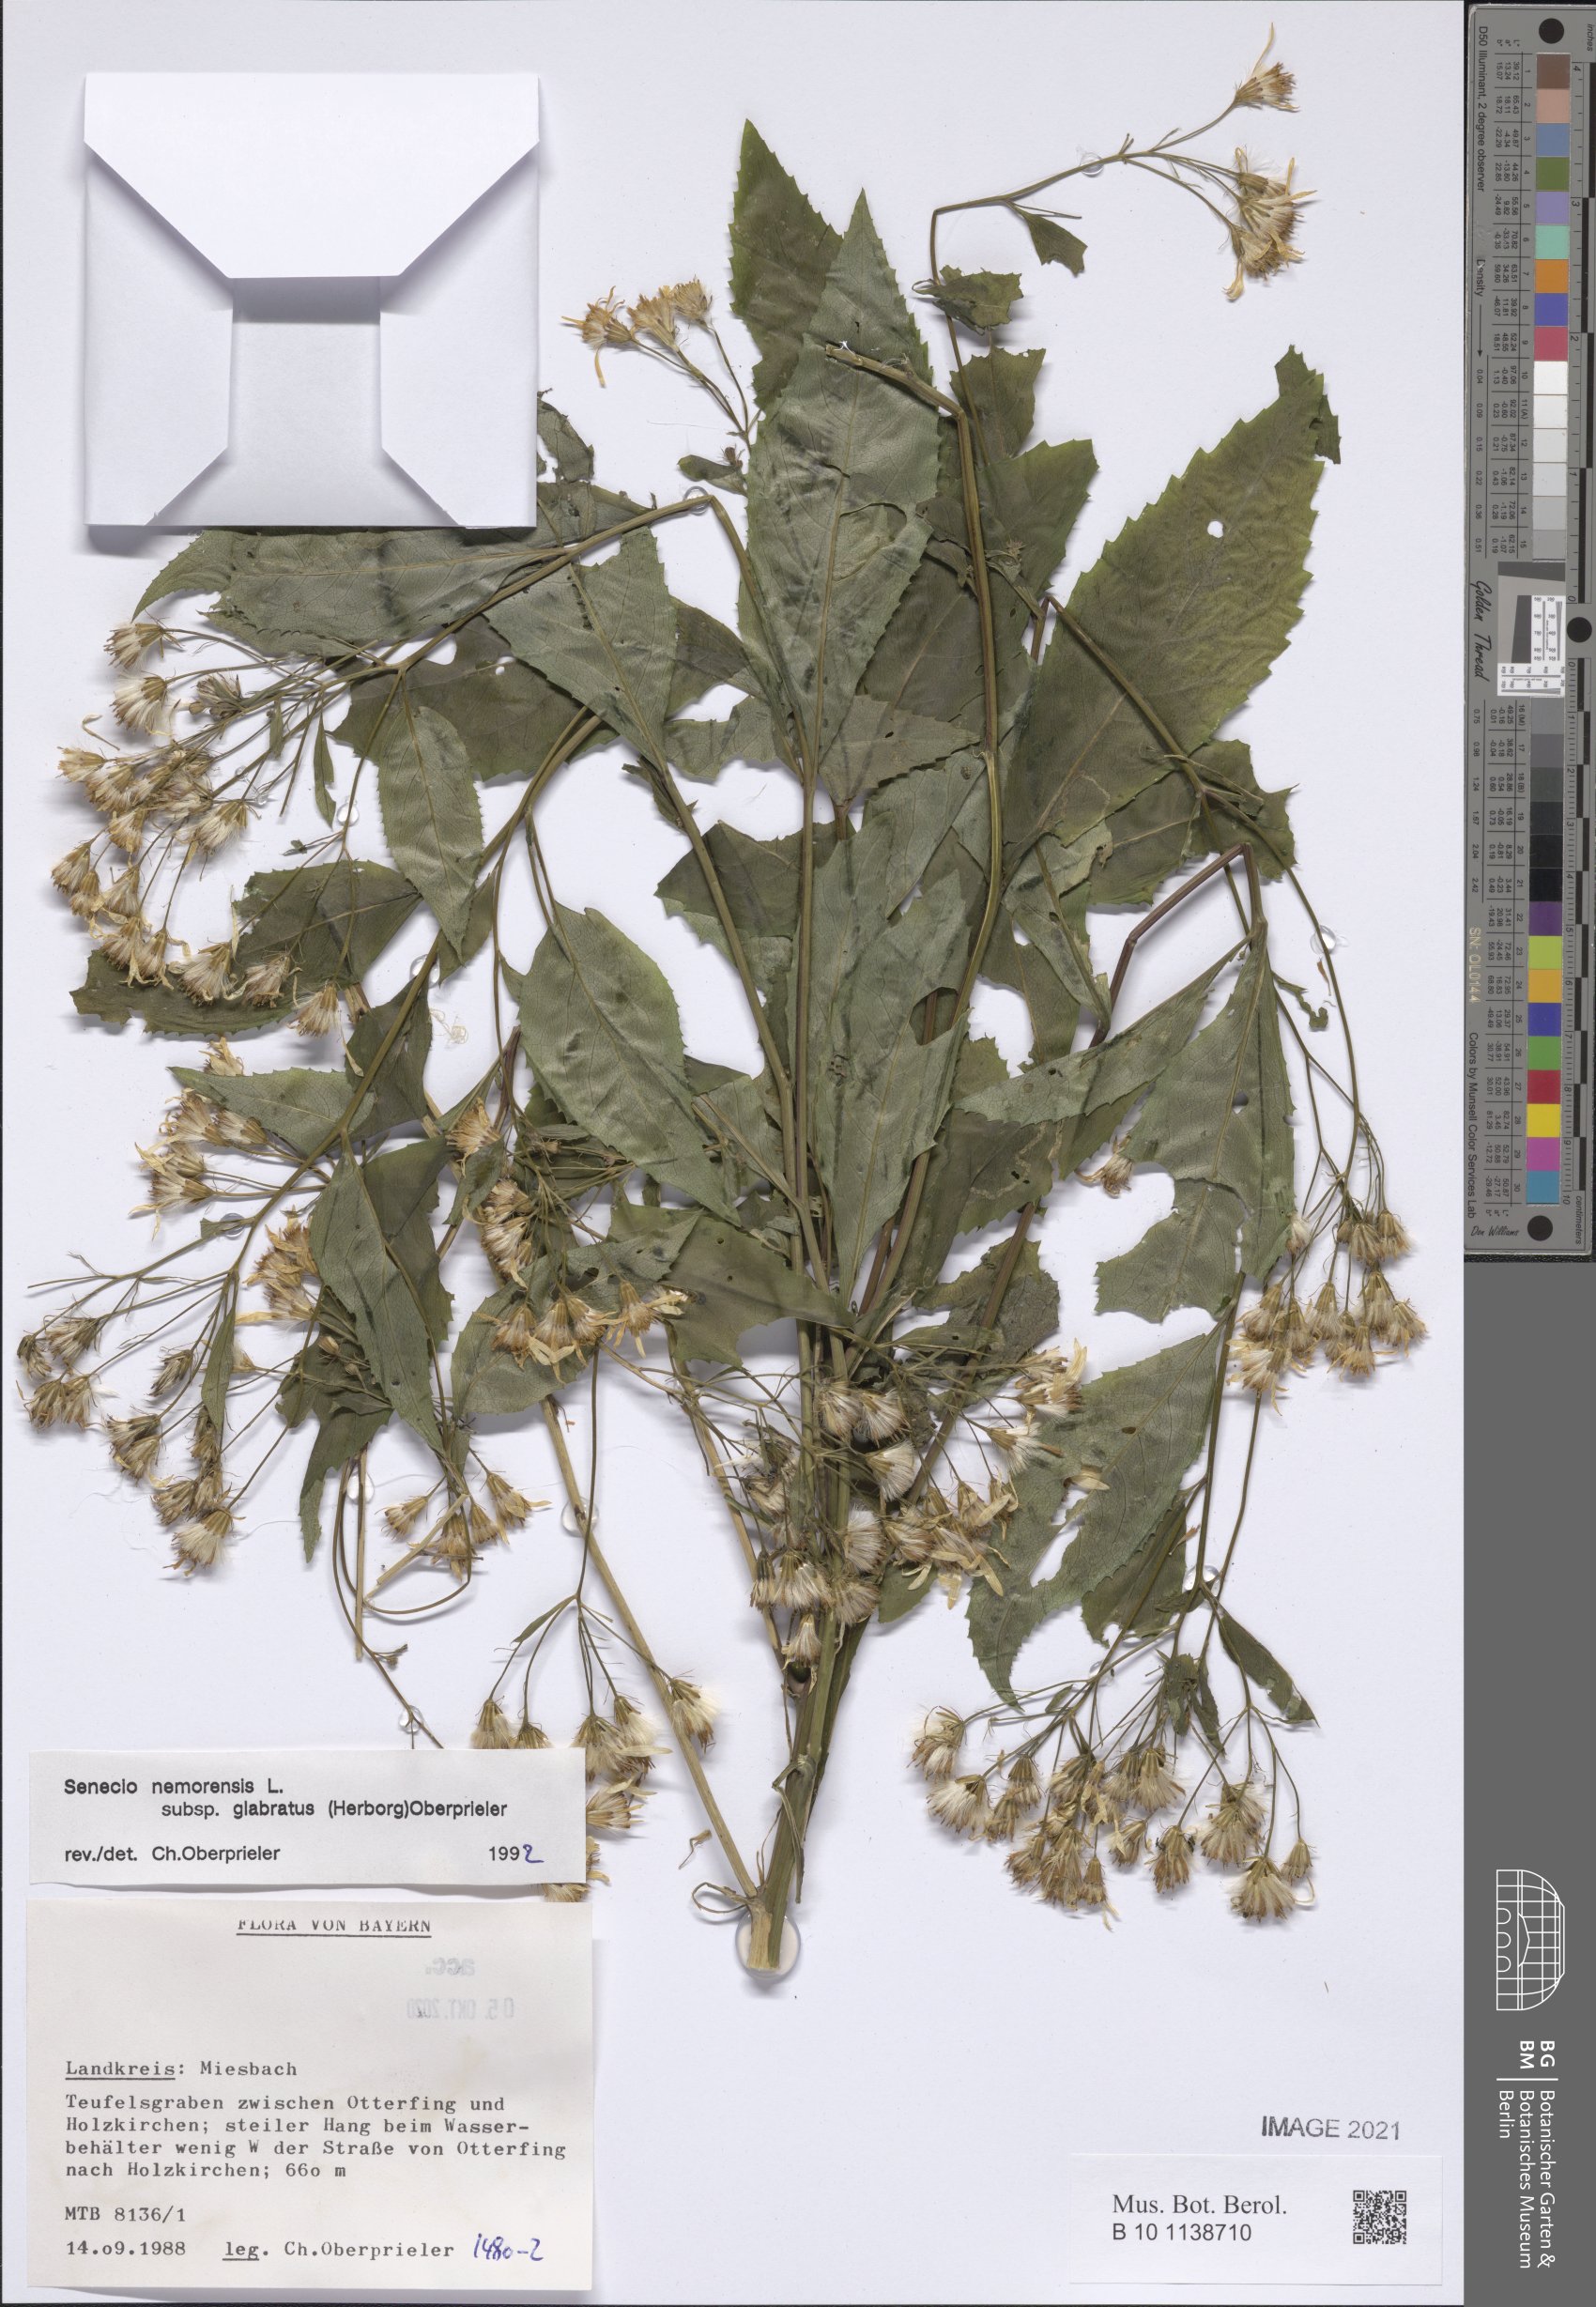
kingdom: Plantae
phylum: Tracheophyta
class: Magnoliopsida
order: Asterales
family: Asteraceae
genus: Senecio
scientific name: Senecio germanicus
